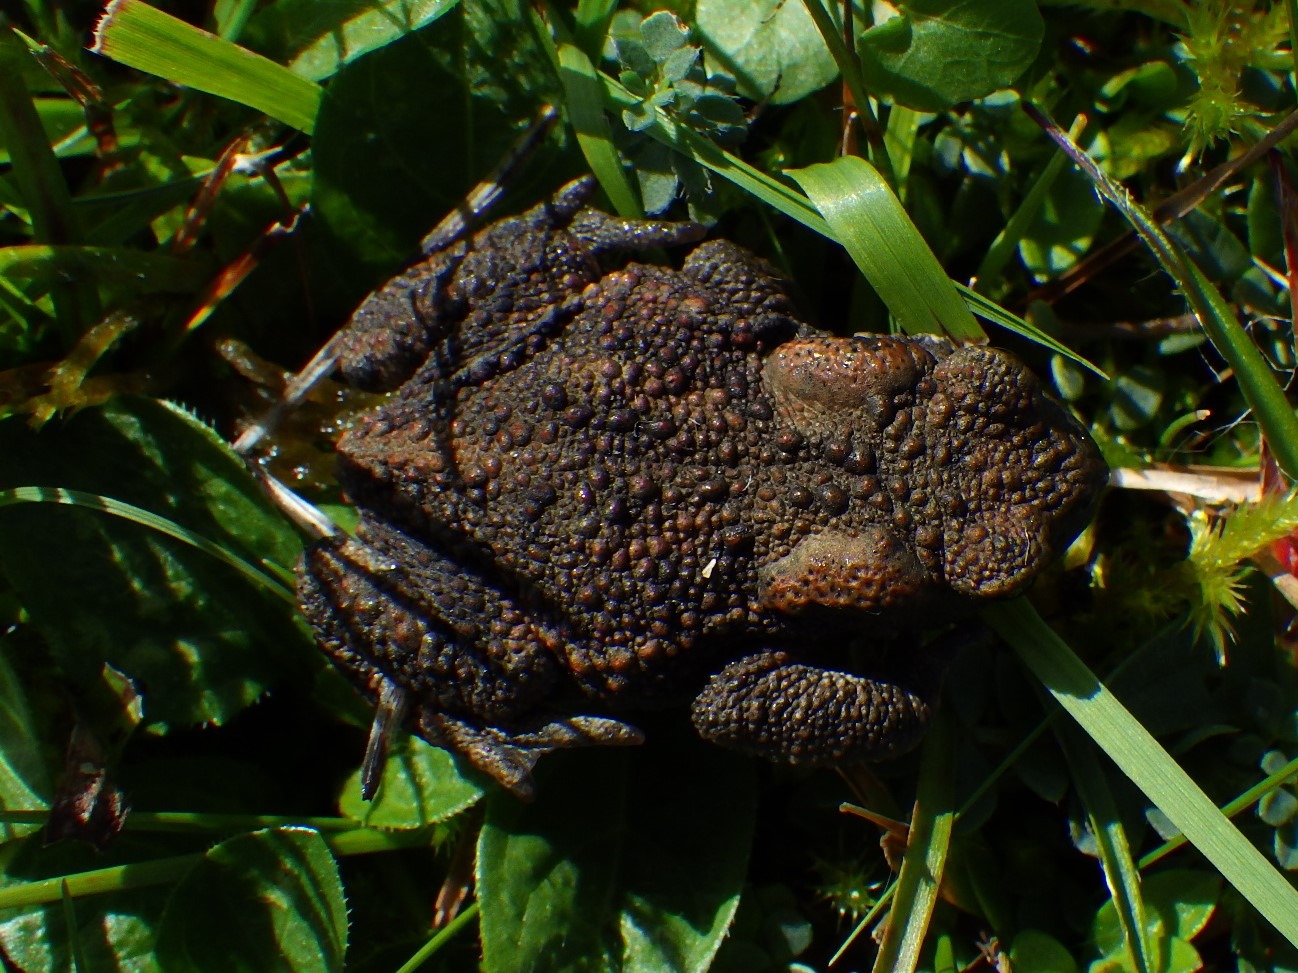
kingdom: Animalia
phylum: Chordata
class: Amphibia
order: Anura
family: Bufonidae
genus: Bufo
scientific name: Bufo bufo
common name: Skrubtudse
